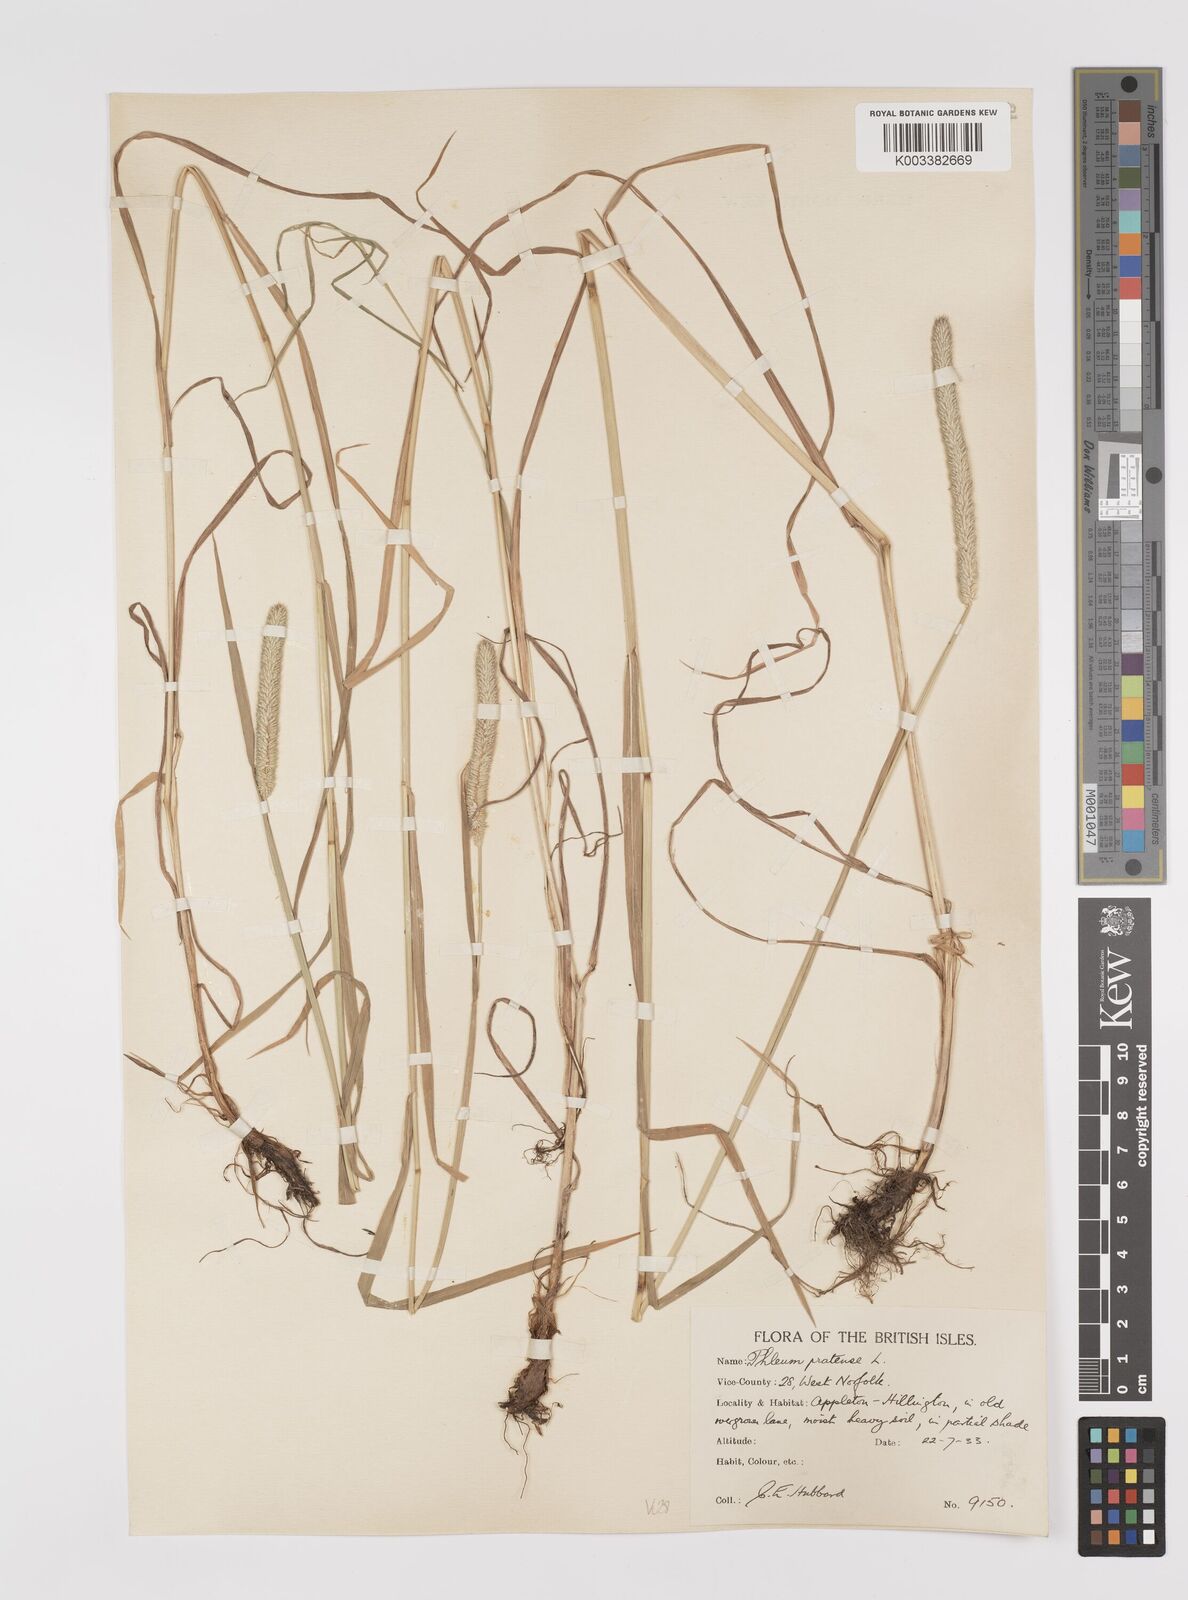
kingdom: Plantae
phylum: Tracheophyta
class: Liliopsida
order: Poales
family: Poaceae
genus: Phleum
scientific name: Phleum pratense
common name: Timothy grass
